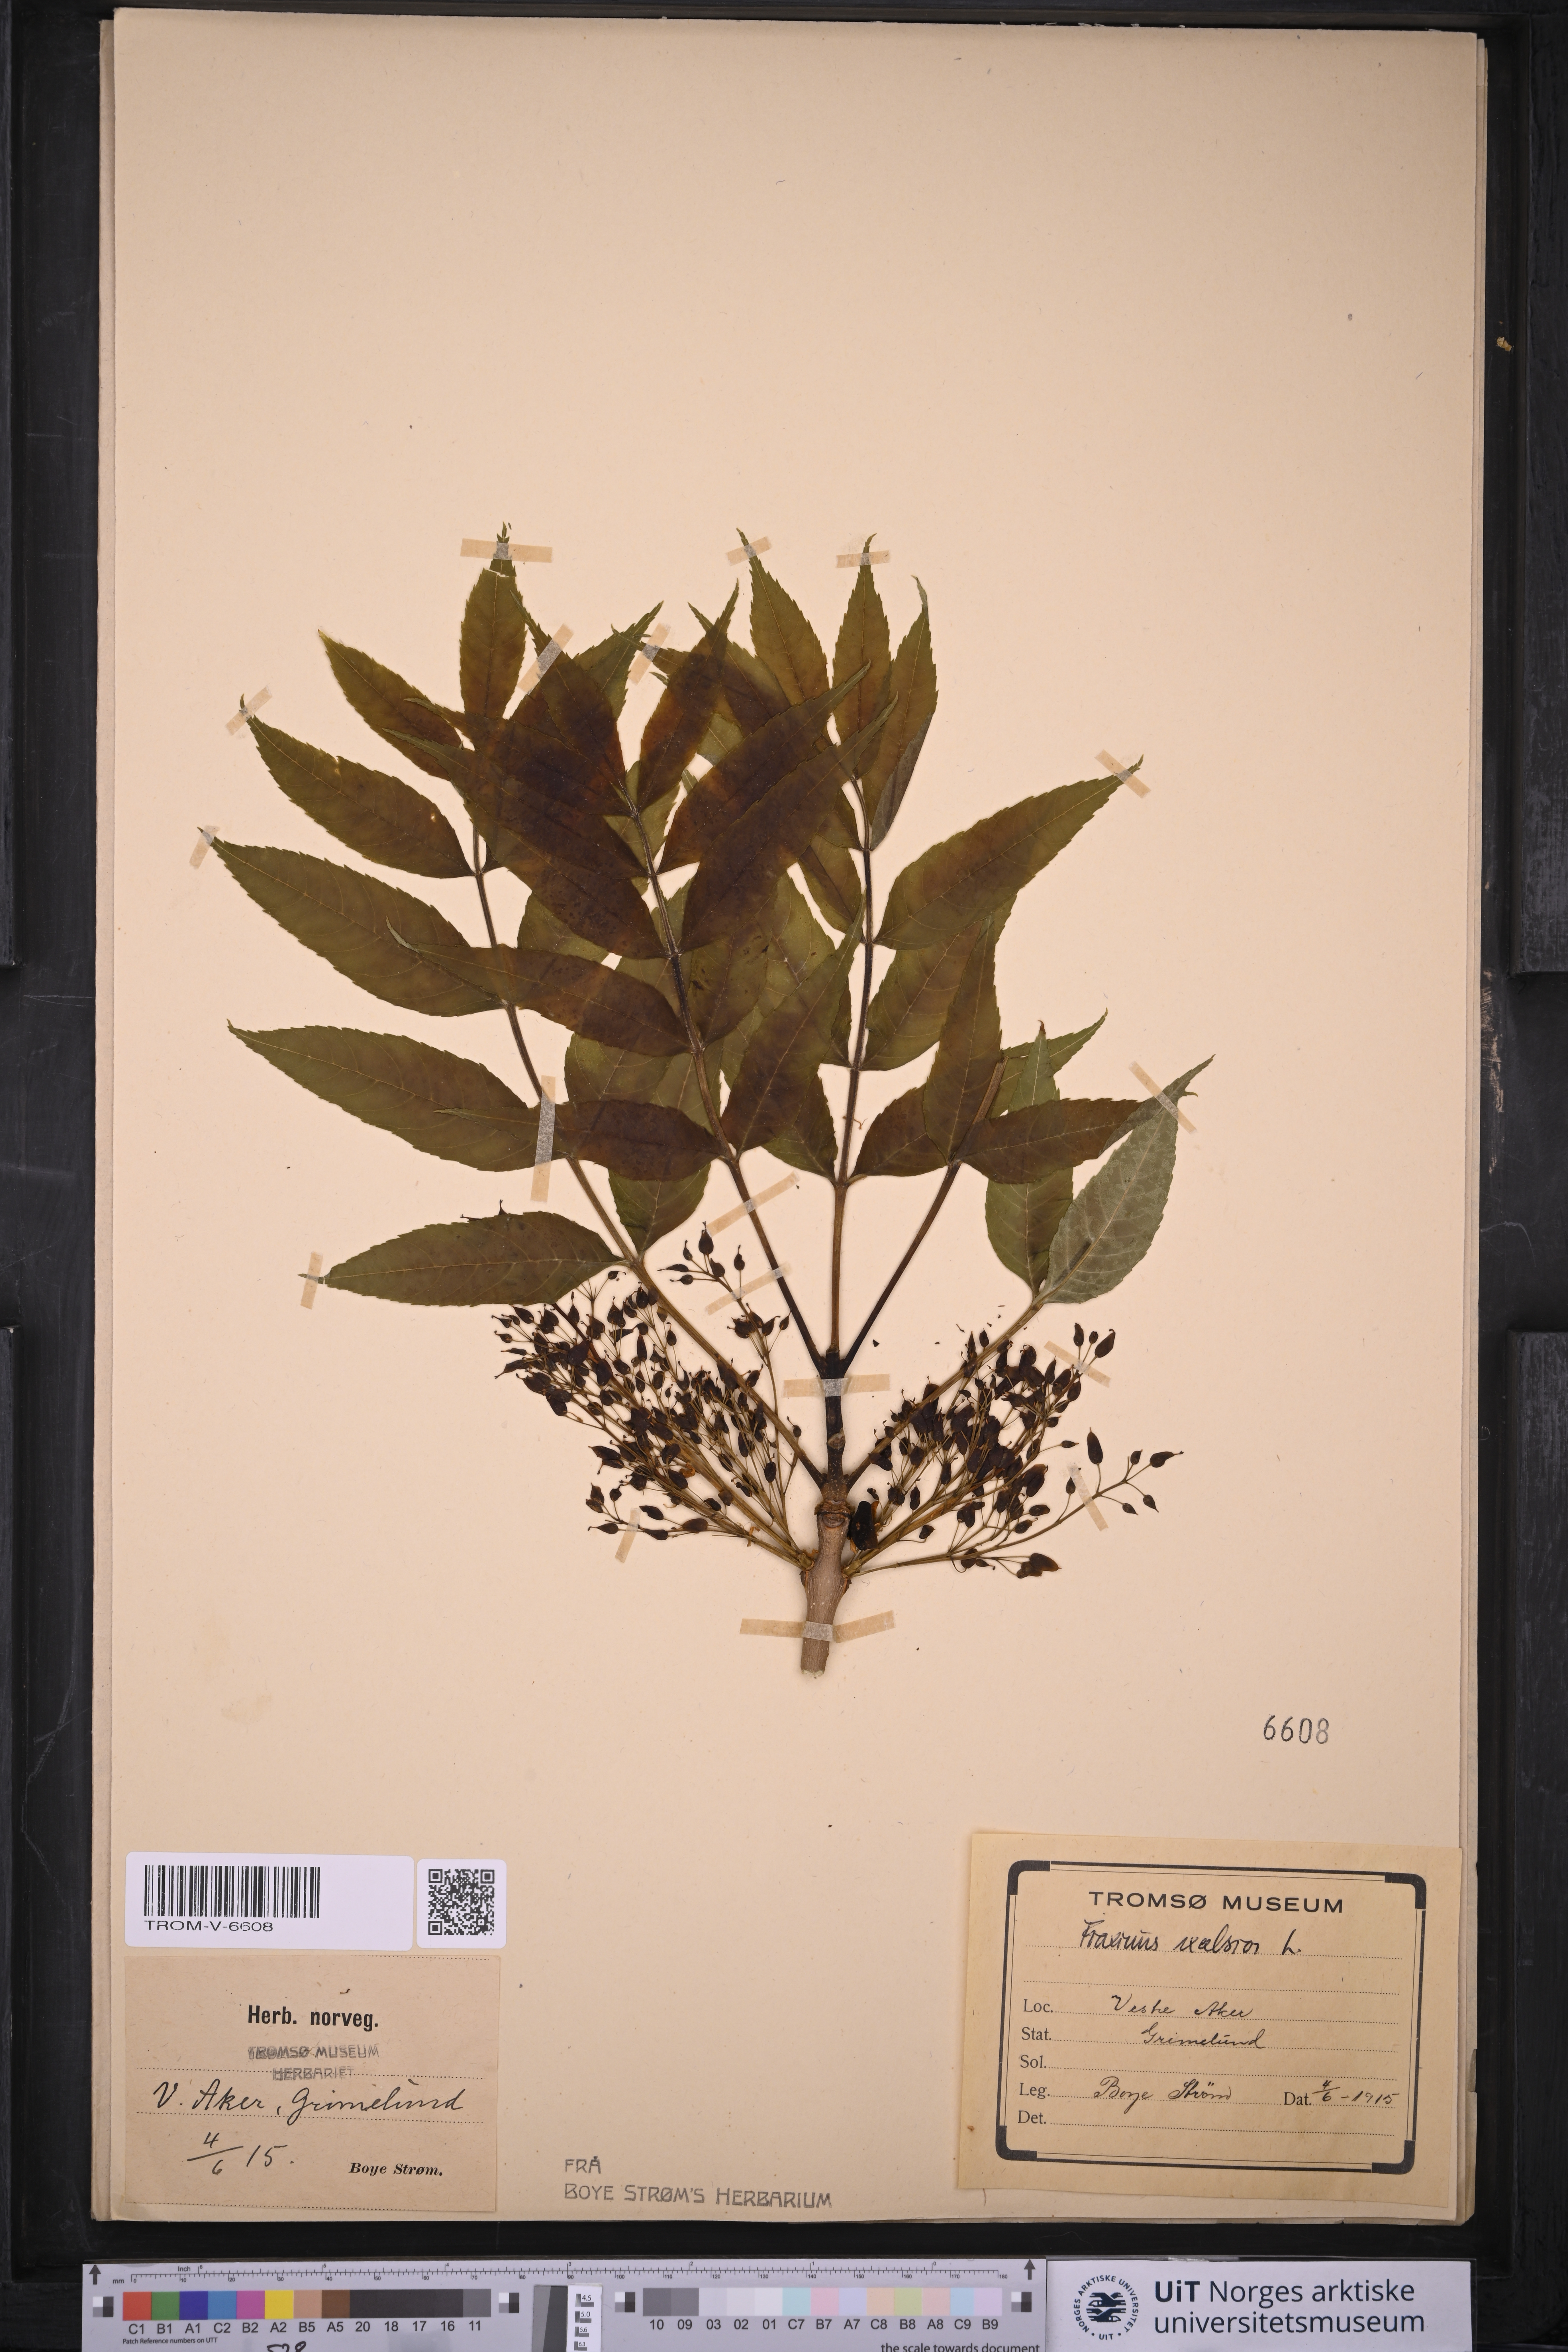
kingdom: Plantae
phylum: Tracheophyta
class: Magnoliopsida
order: Lamiales
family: Oleaceae
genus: Fraxinus
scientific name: Fraxinus excelsior
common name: European ash
